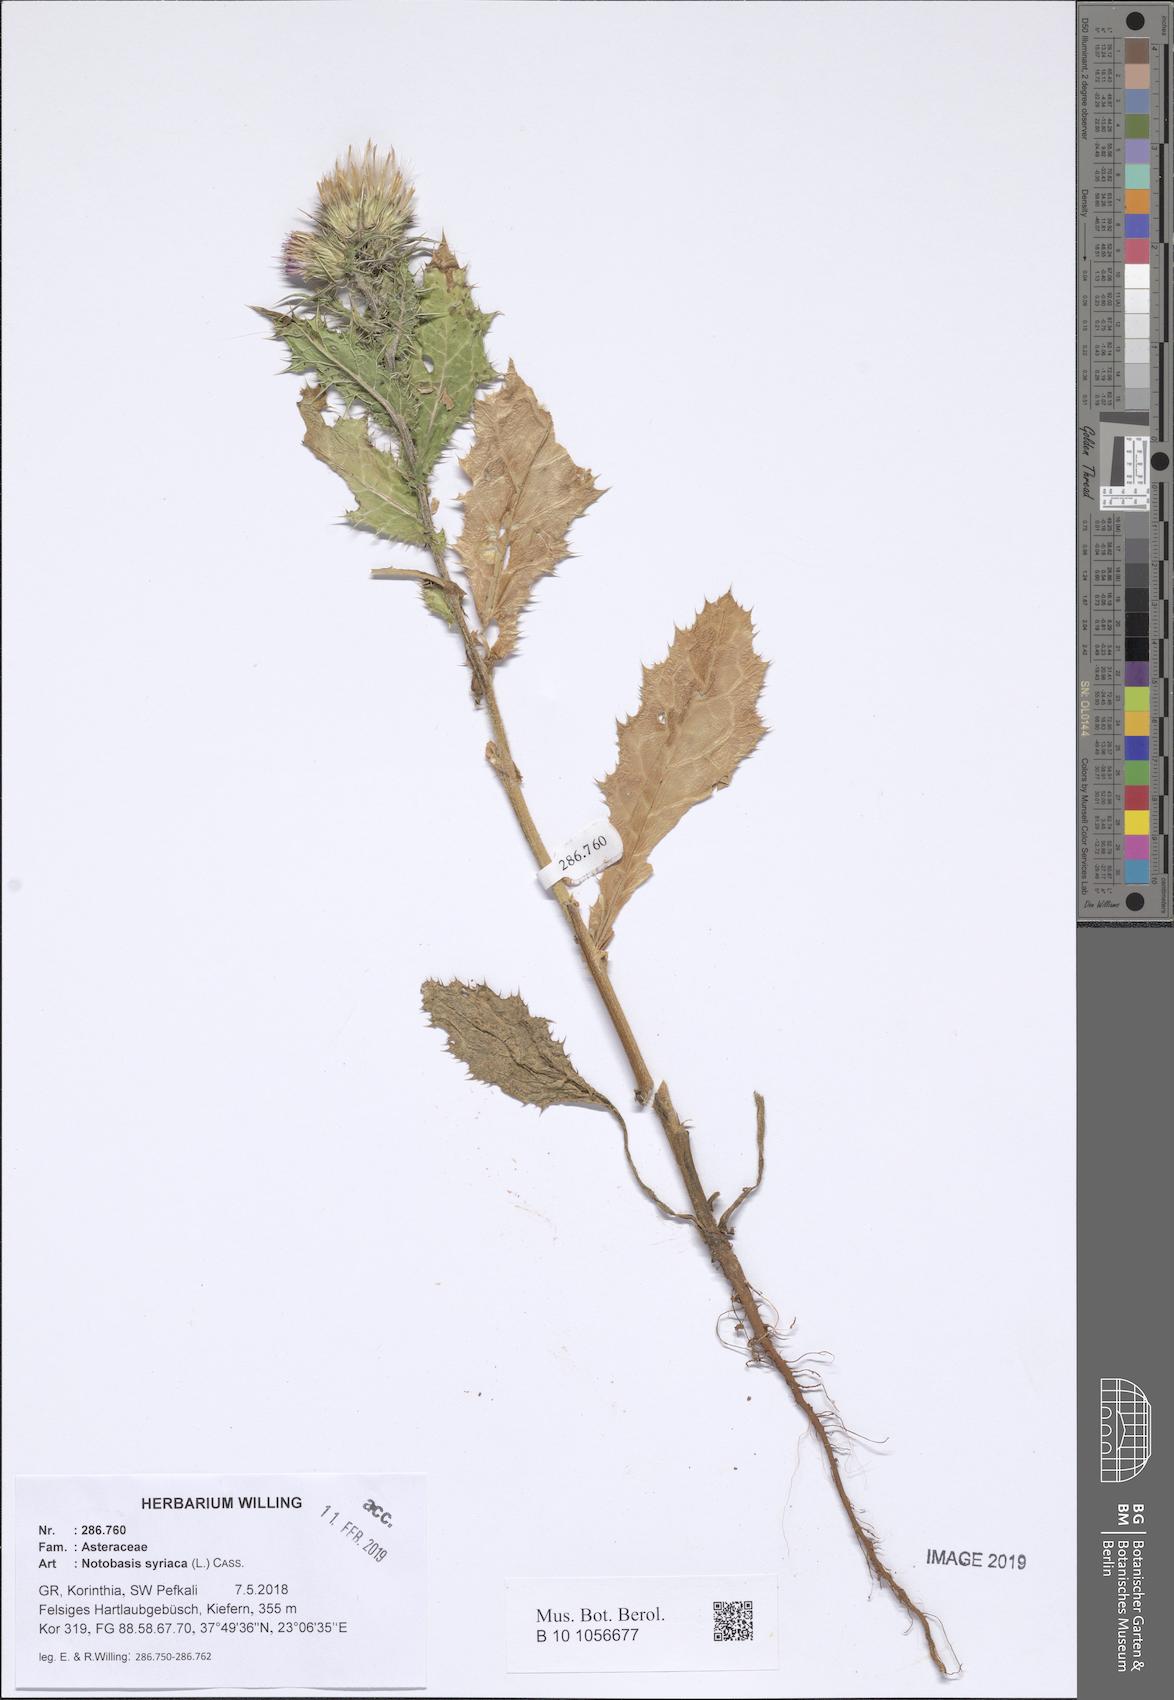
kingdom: Plantae
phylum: Tracheophyta
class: Magnoliopsida
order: Asterales
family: Asteraceae
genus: Notobasis
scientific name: Notobasis syriaca
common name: Syrian thistle
